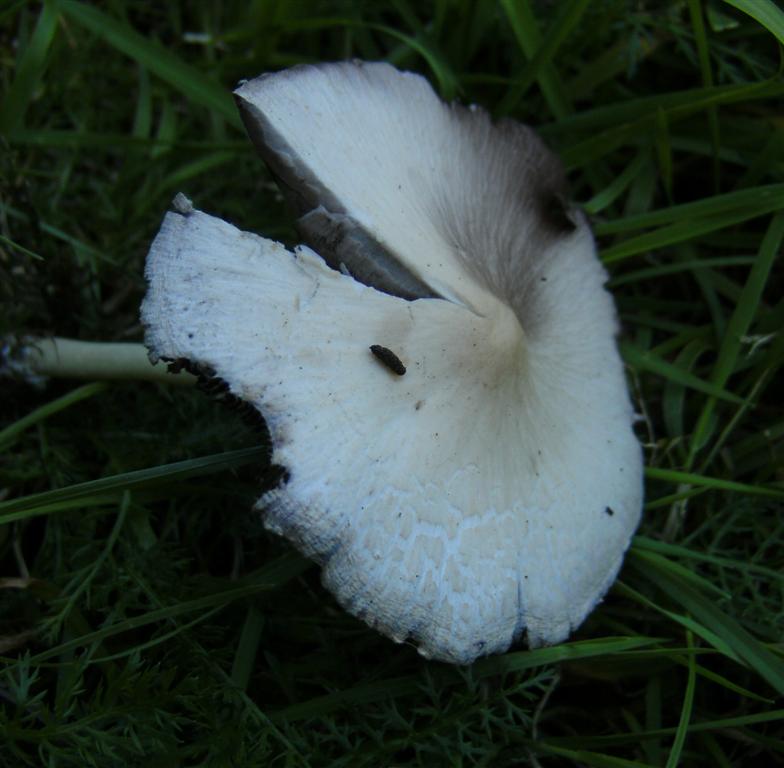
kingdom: Fungi
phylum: Basidiomycota
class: Agaricomycetes
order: Agaricales
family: Psathyrellaceae
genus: Candolleomyces
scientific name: Candolleomyces candolleanus
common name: Candolles mørkhat
